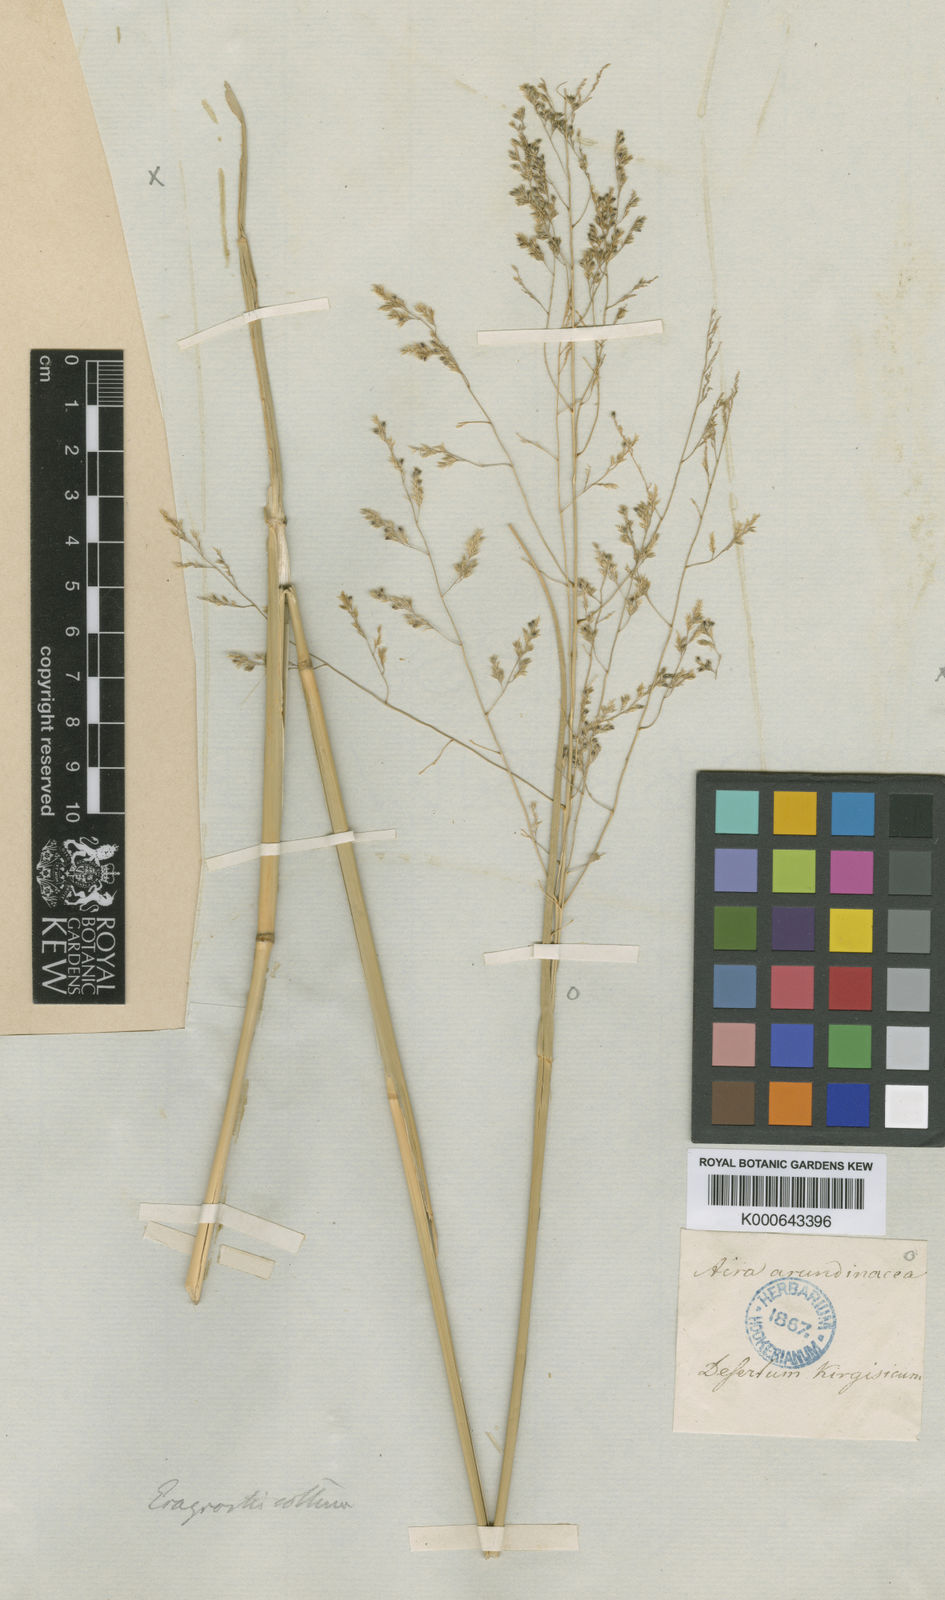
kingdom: Plantae
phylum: Tracheophyta
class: Liliopsida
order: Poales
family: Poaceae
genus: Eragrostis
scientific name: Eragrostis collina
